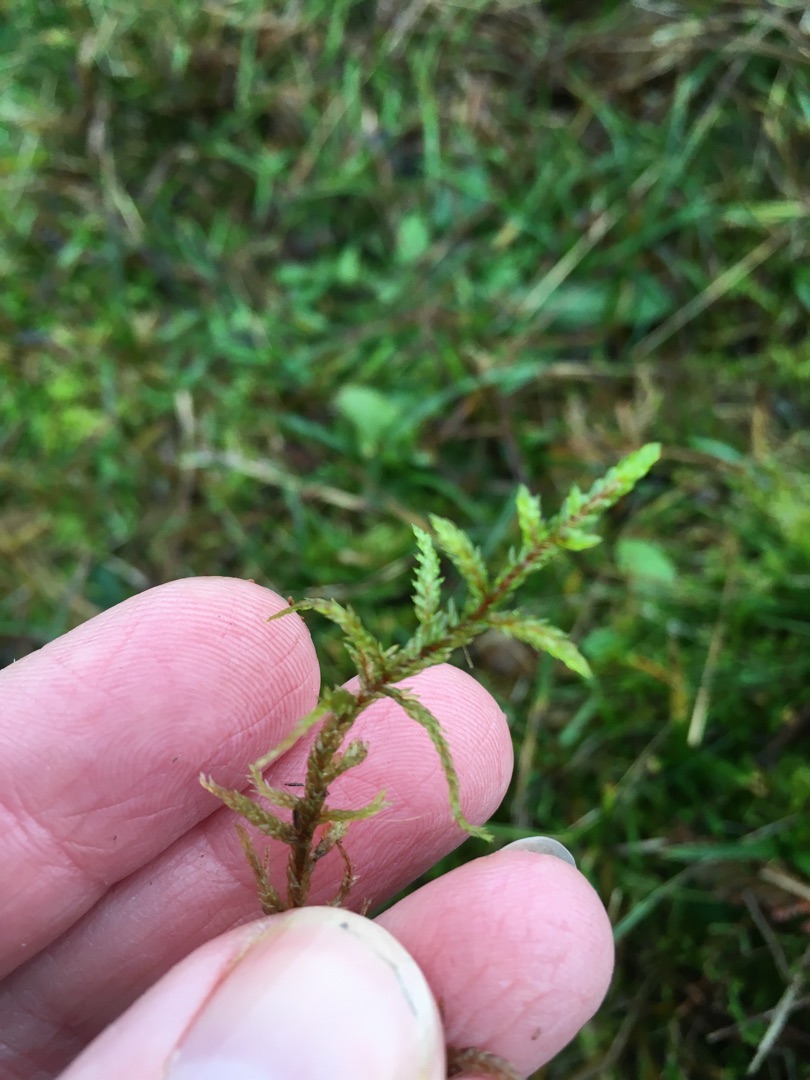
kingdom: Plantae
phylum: Bryophyta
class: Bryopsida
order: Hypnales
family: Hylocomiaceae
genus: Pleurozium
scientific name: Pleurozium schreberi
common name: Trind fyrremos
